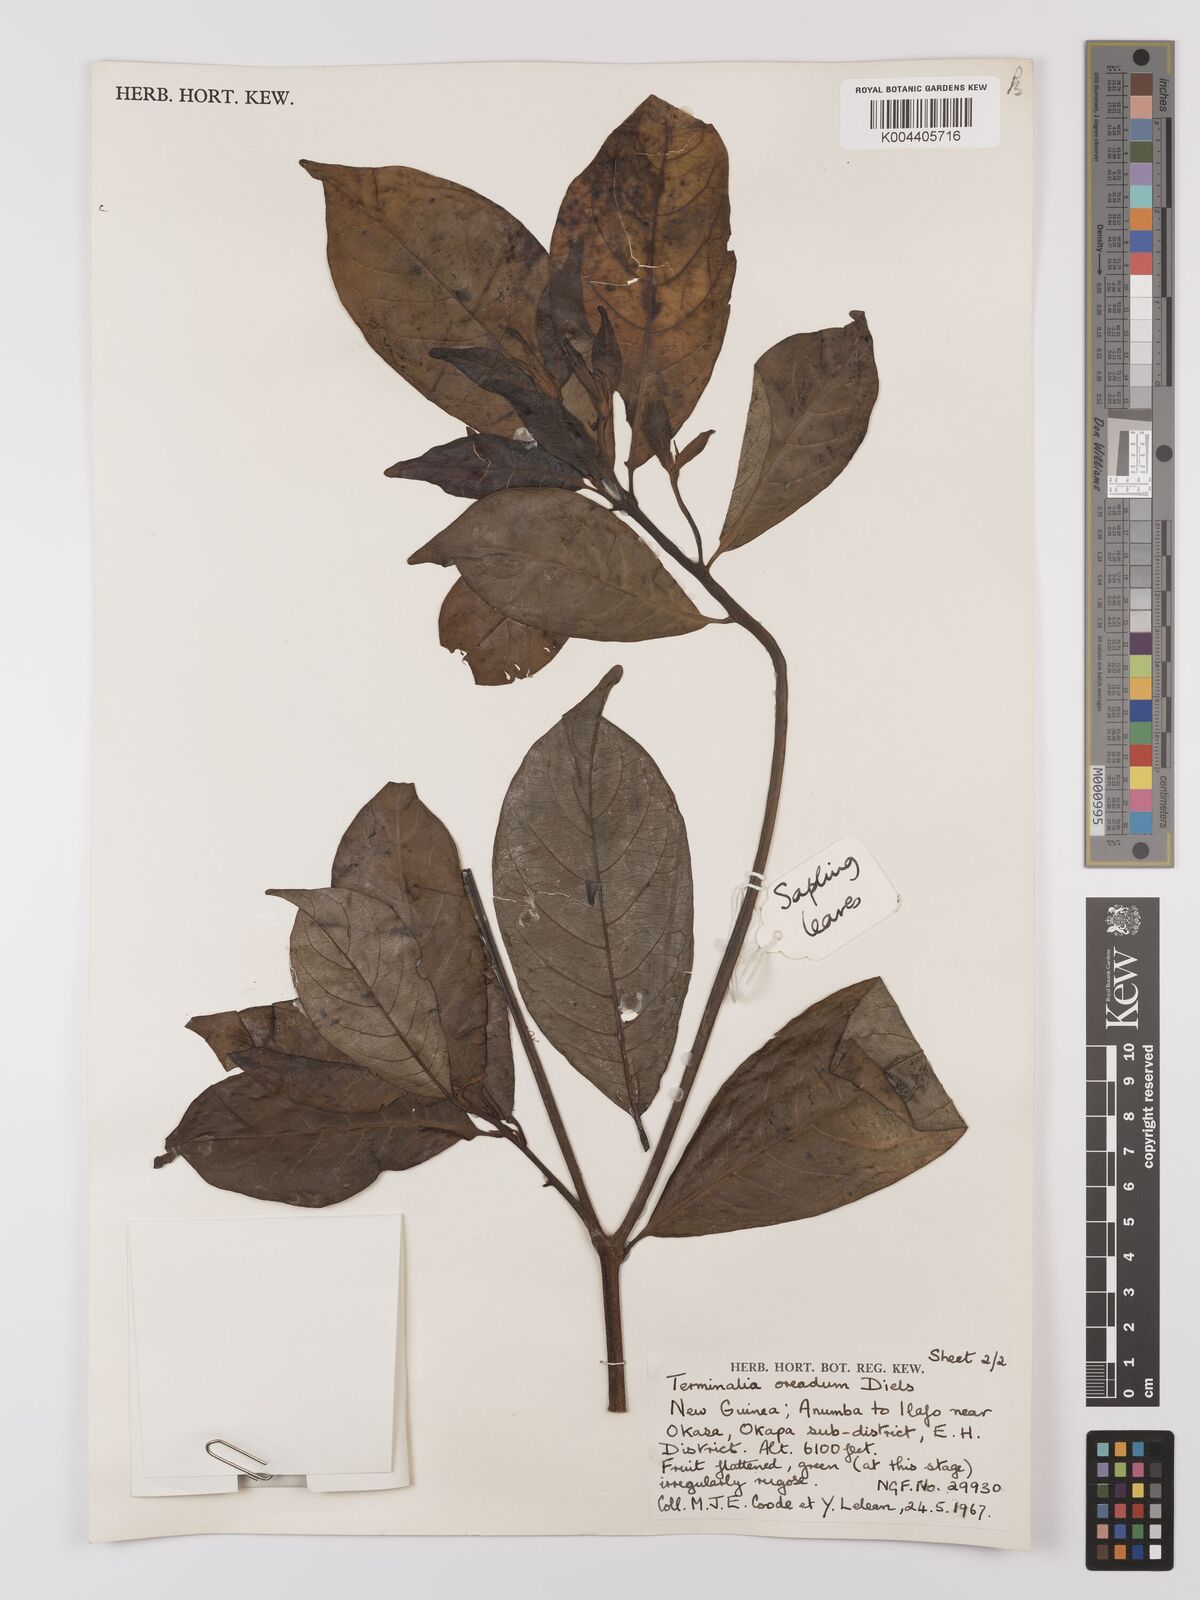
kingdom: Plantae
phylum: Tracheophyta
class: Magnoliopsida
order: Myrtales
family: Combretaceae
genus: Terminalia
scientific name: Terminalia oreadum
